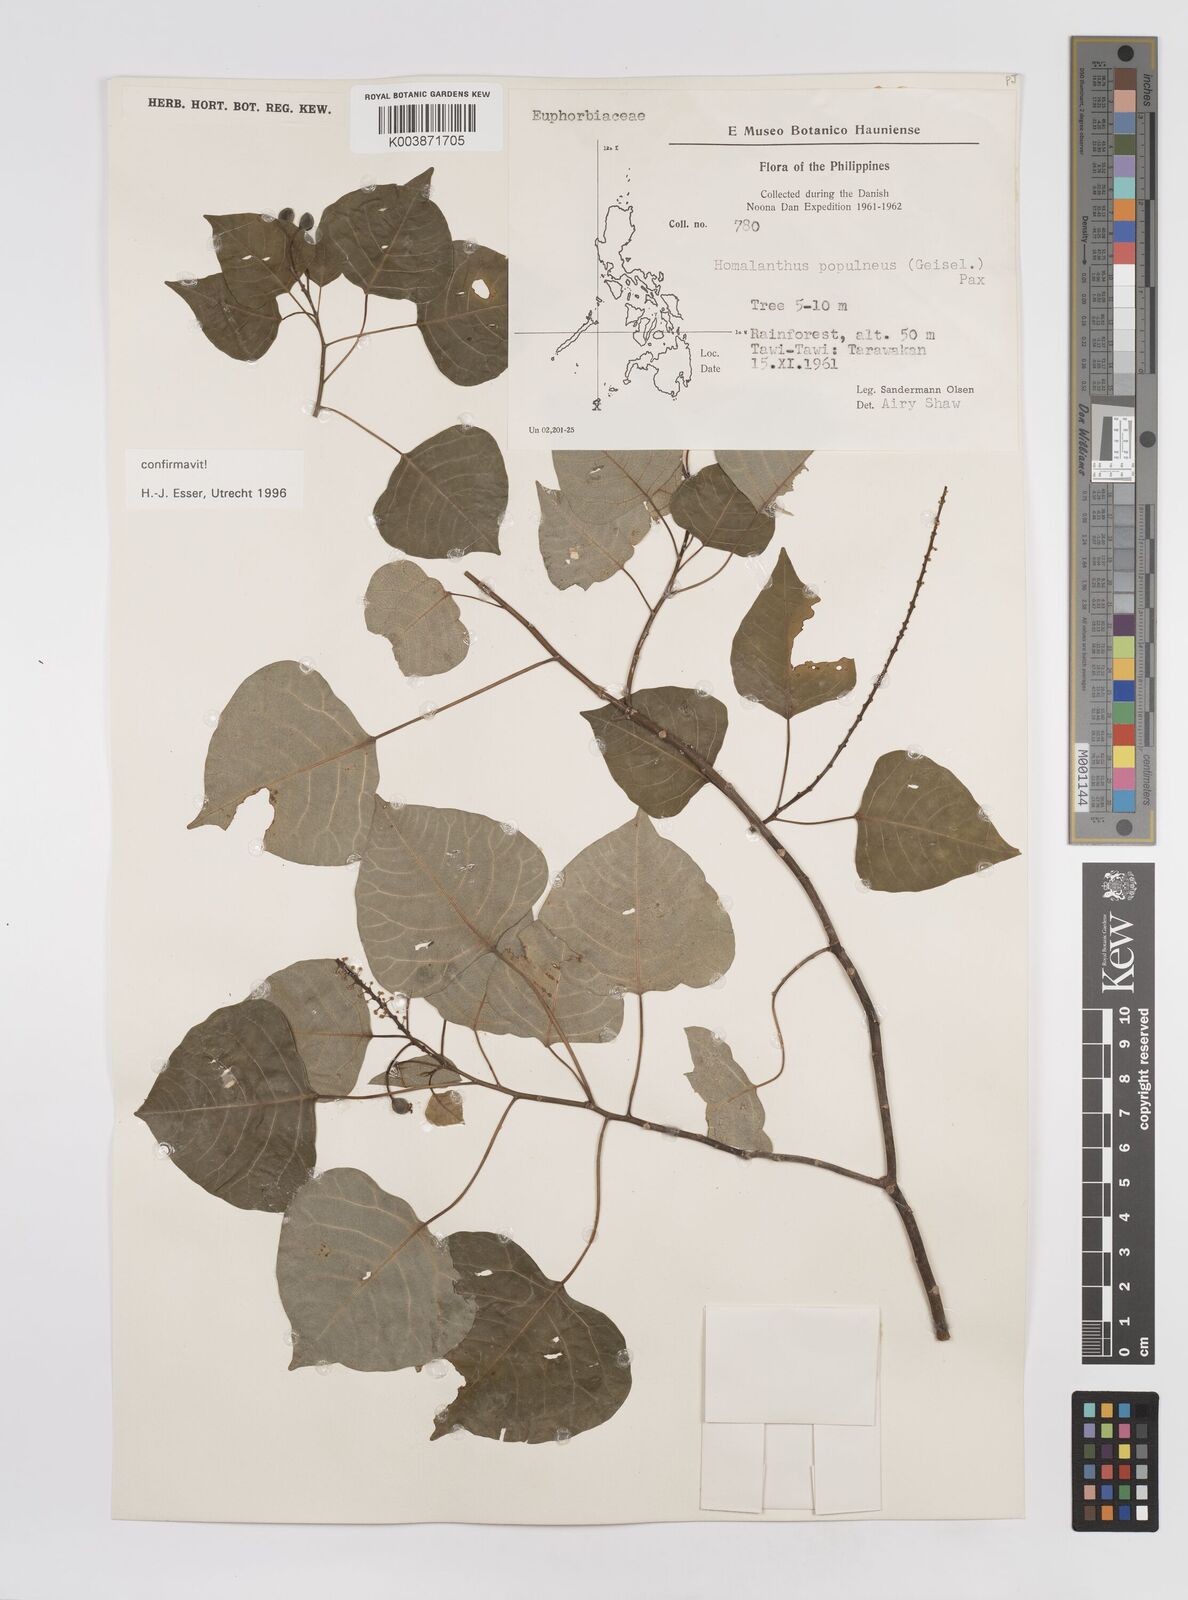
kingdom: Plantae
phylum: Tracheophyta
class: Magnoliopsida
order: Malpighiales
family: Euphorbiaceae
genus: Homalanthus
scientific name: Homalanthus populneus
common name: Spurge
